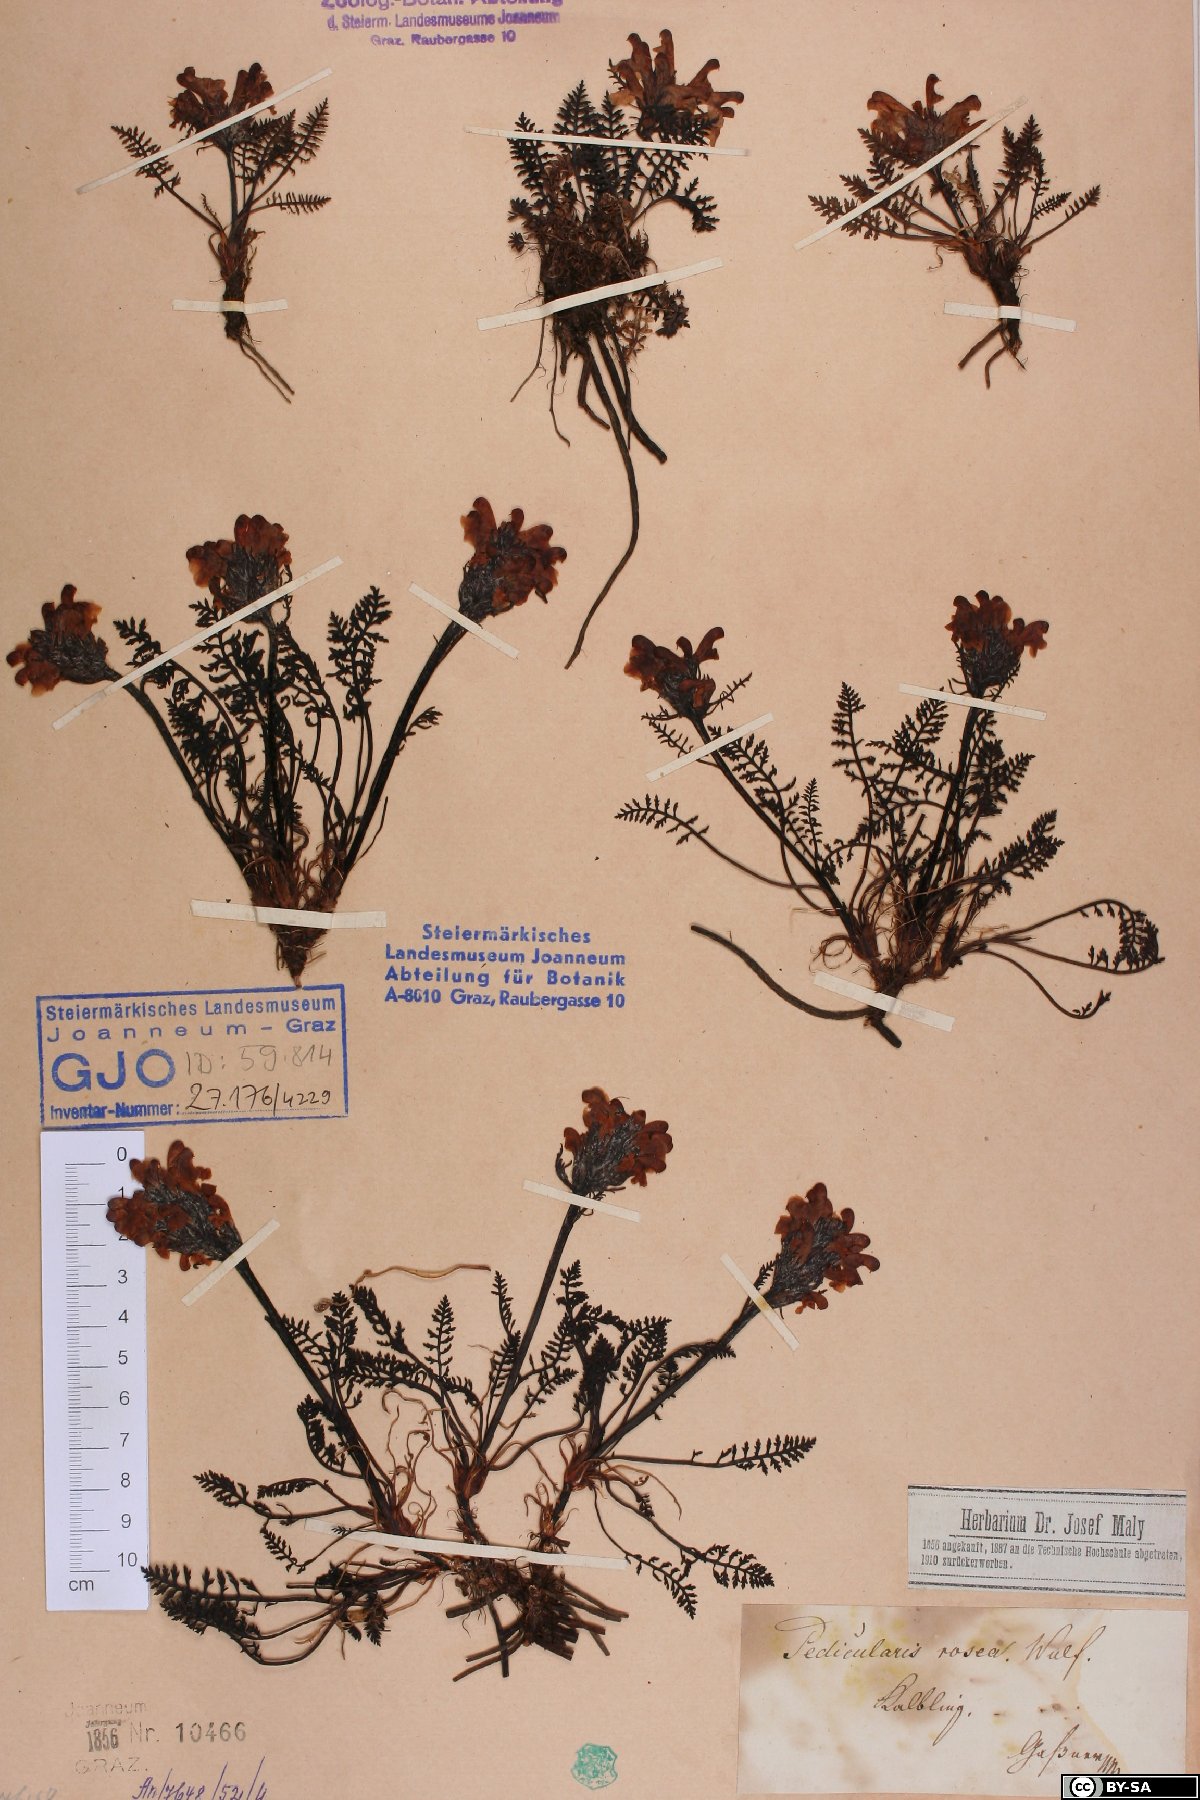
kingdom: Plantae
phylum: Tracheophyta
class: Magnoliopsida
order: Lamiales
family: Orobanchaceae
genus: Pedicularis
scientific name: Pedicularis rosea
